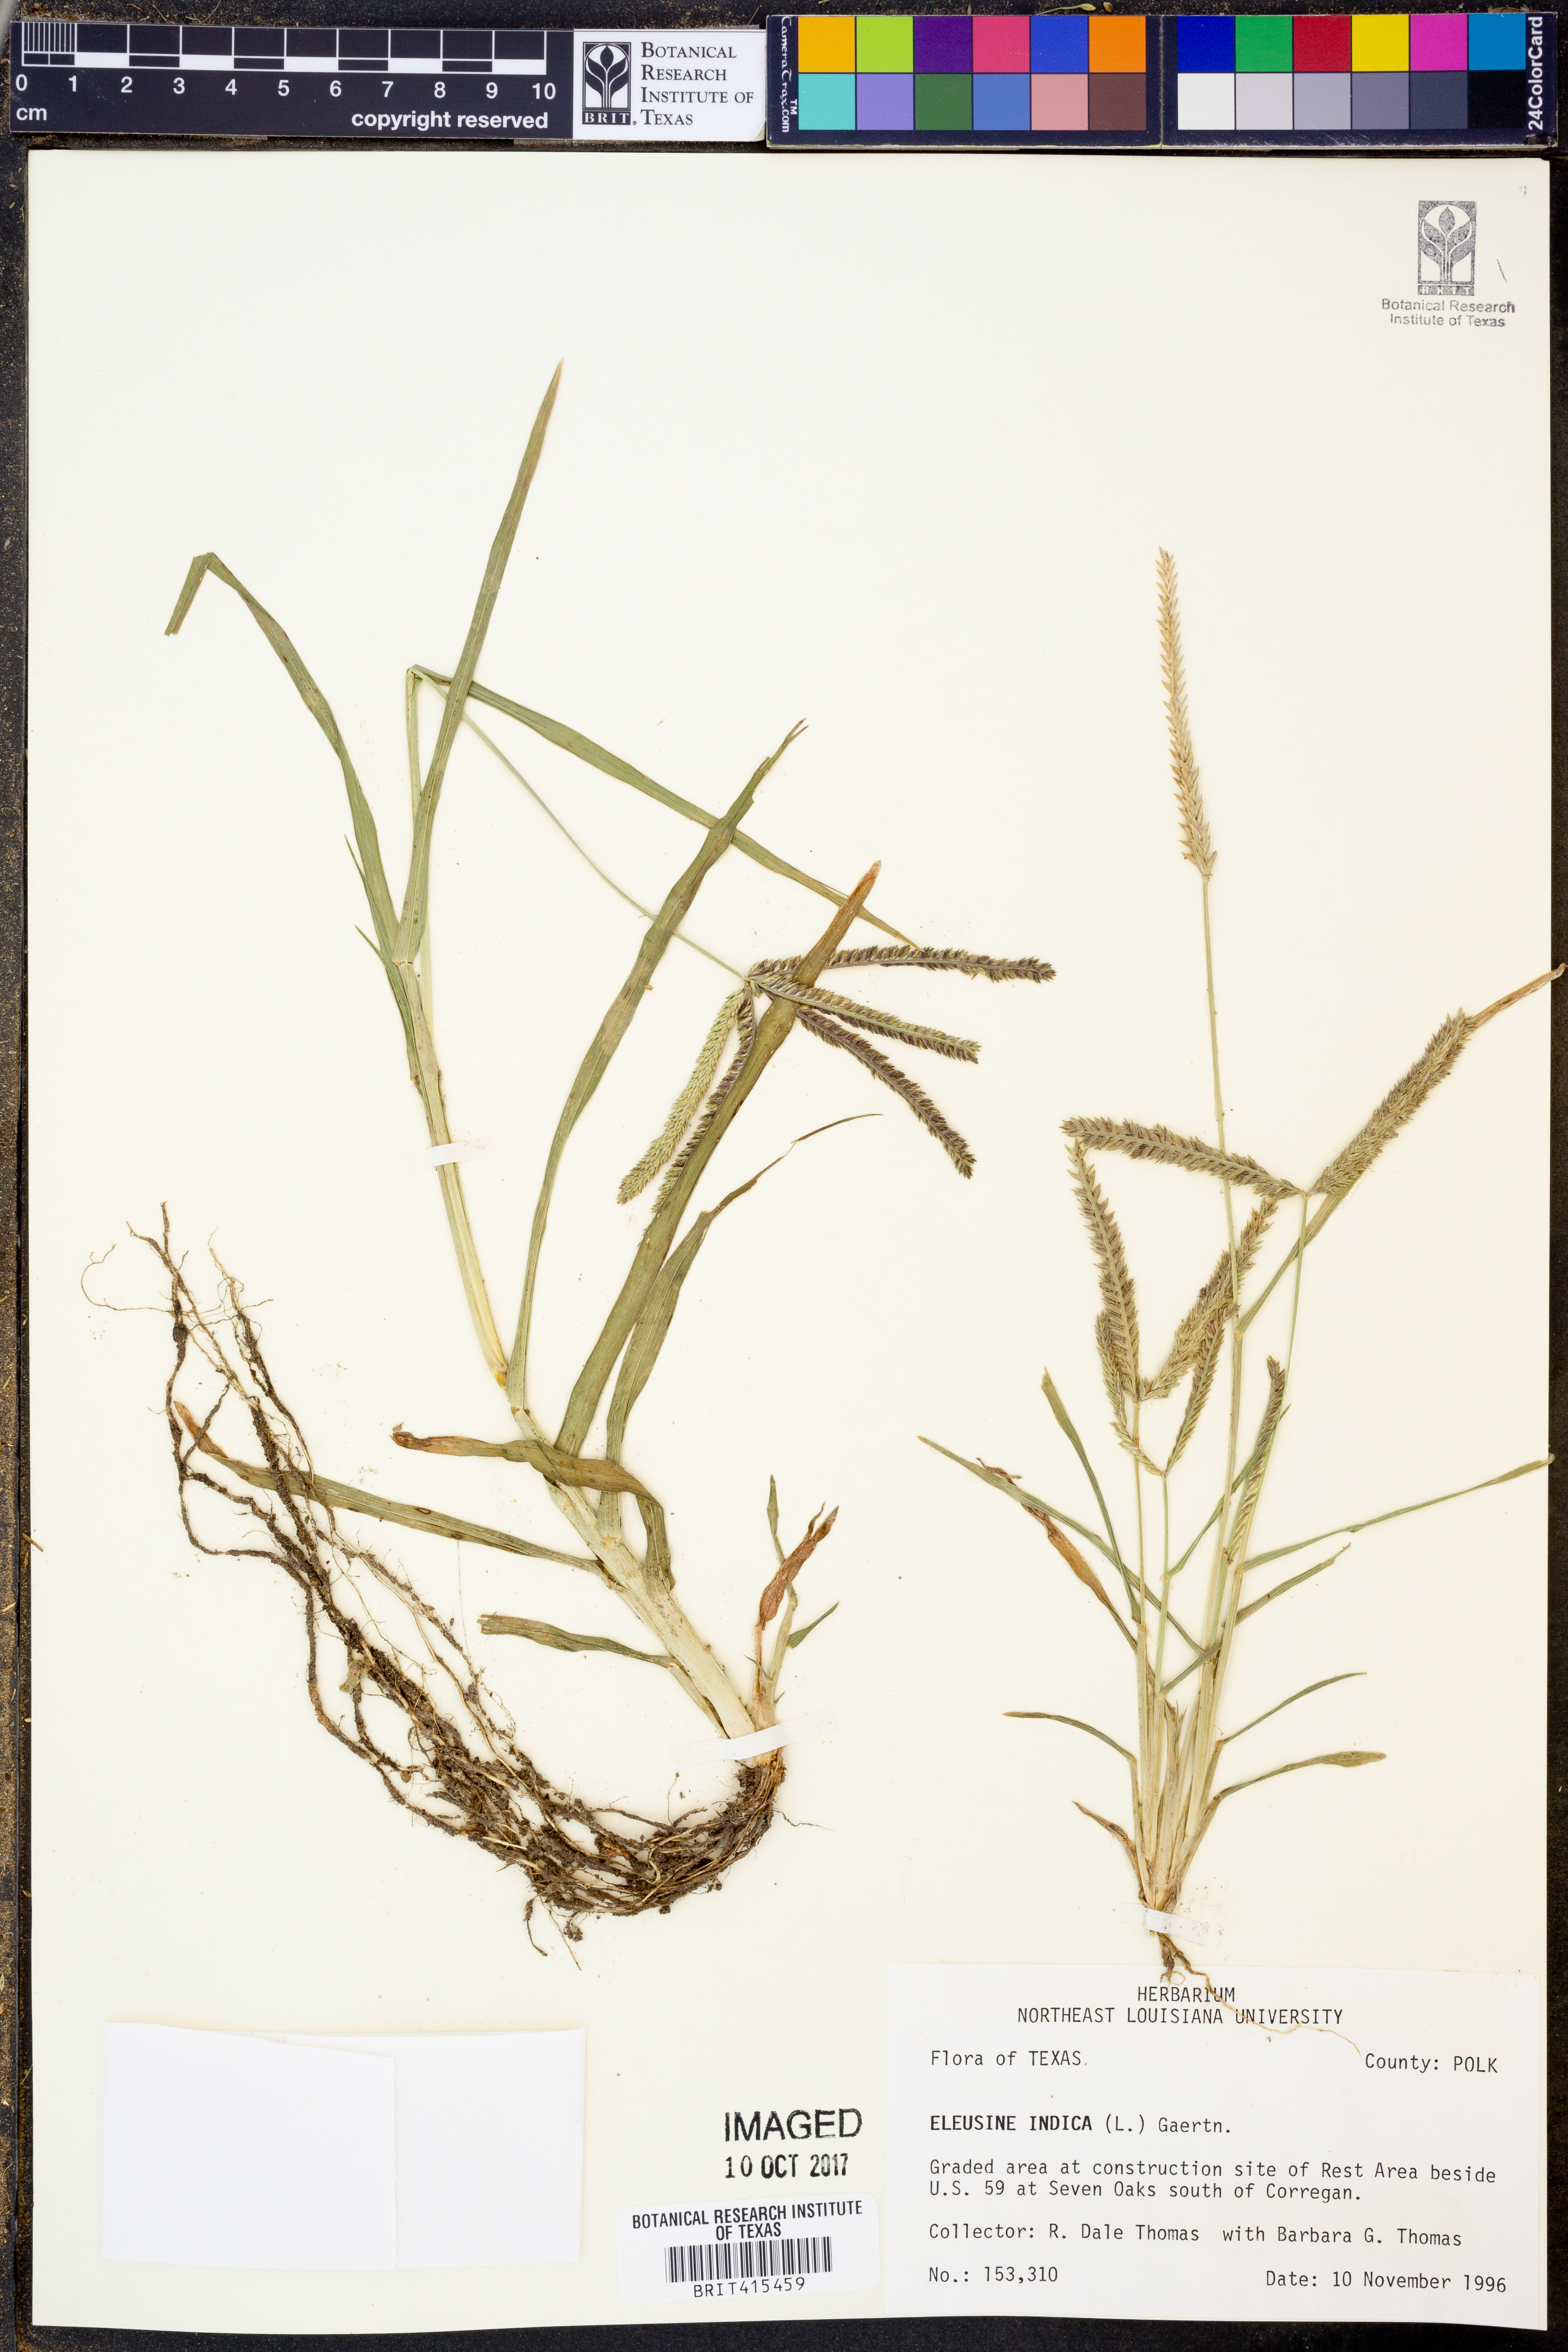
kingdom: Plantae
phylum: Tracheophyta
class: Liliopsida
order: Poales
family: Poaceae
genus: Eleusine
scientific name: Eleusine indica
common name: Yard-grass
